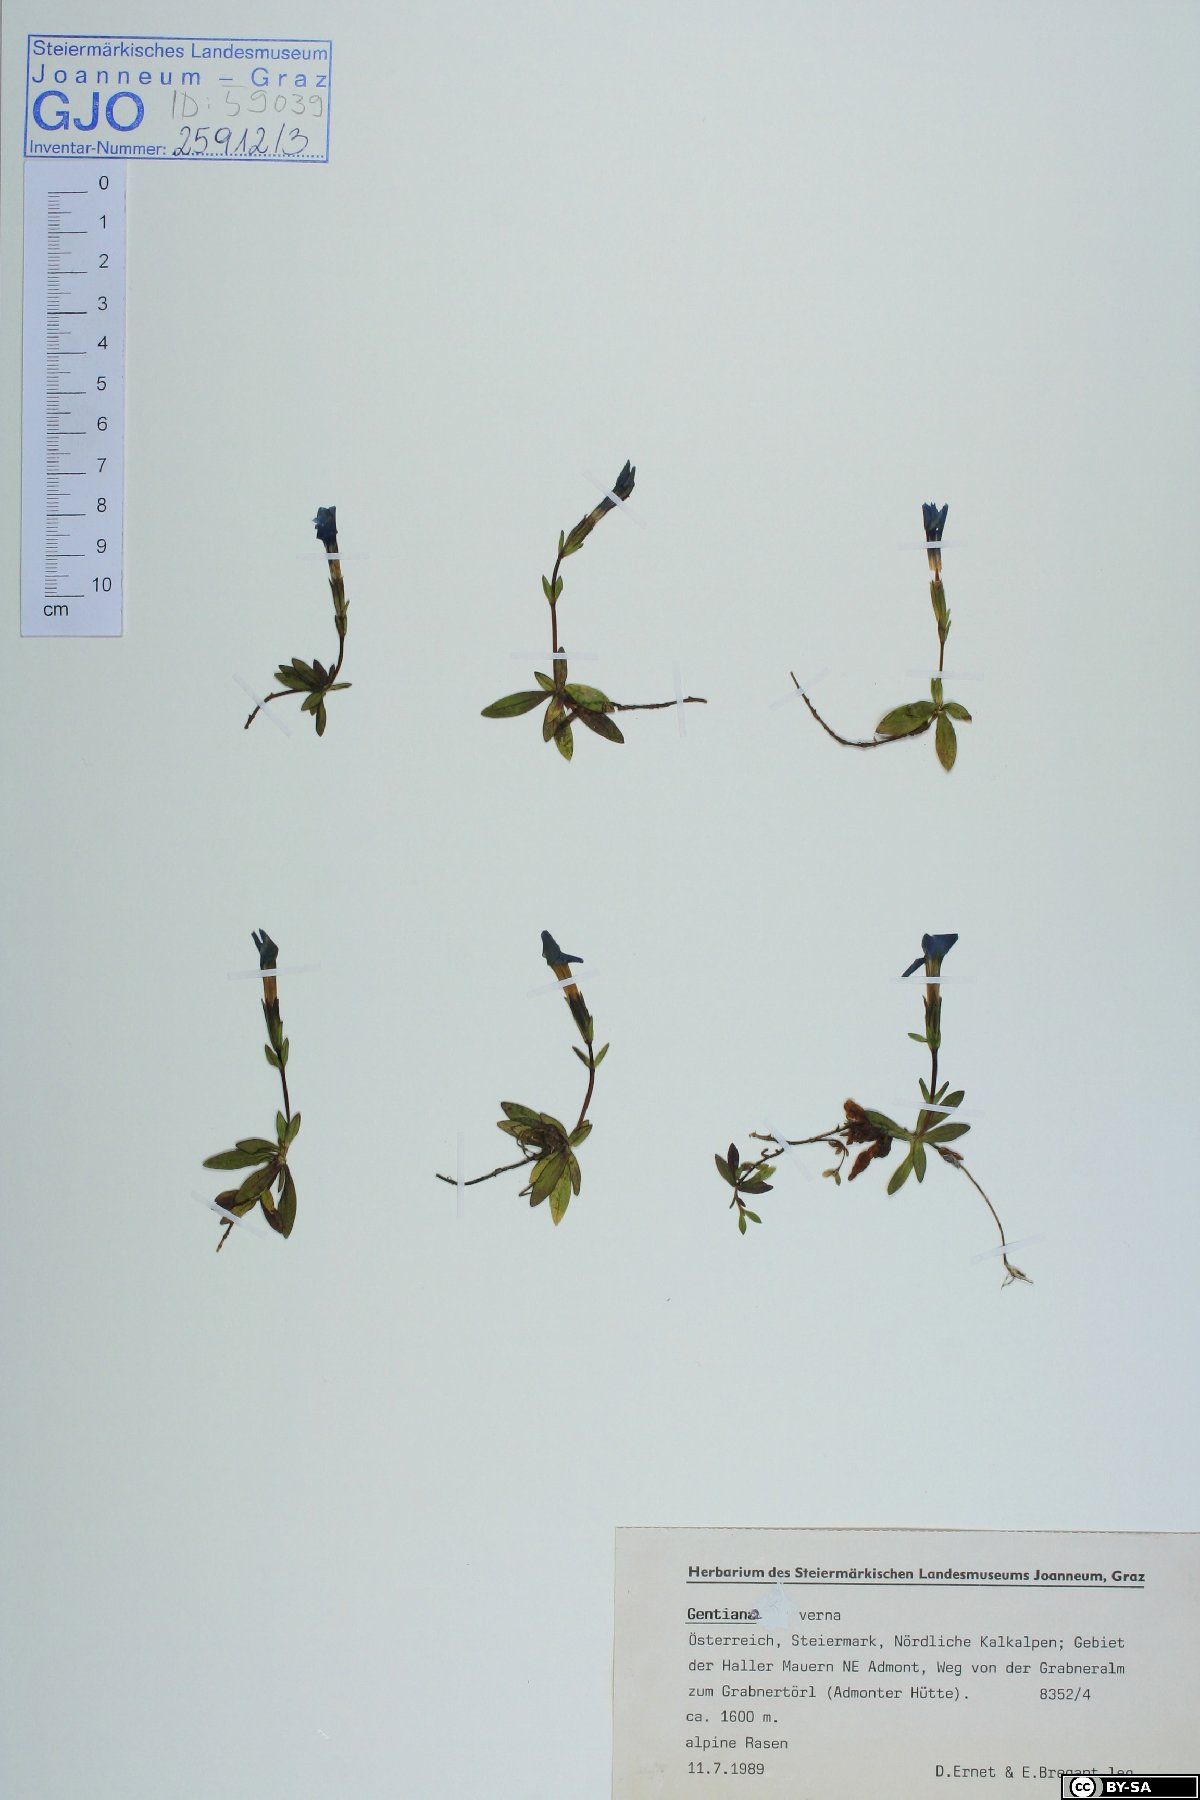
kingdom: Plantae
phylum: Tracheophyta
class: Magnoliopsida
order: Gentianales
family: Gentianaceae
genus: Gentiana
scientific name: Gentiana verna
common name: Spring gentian
